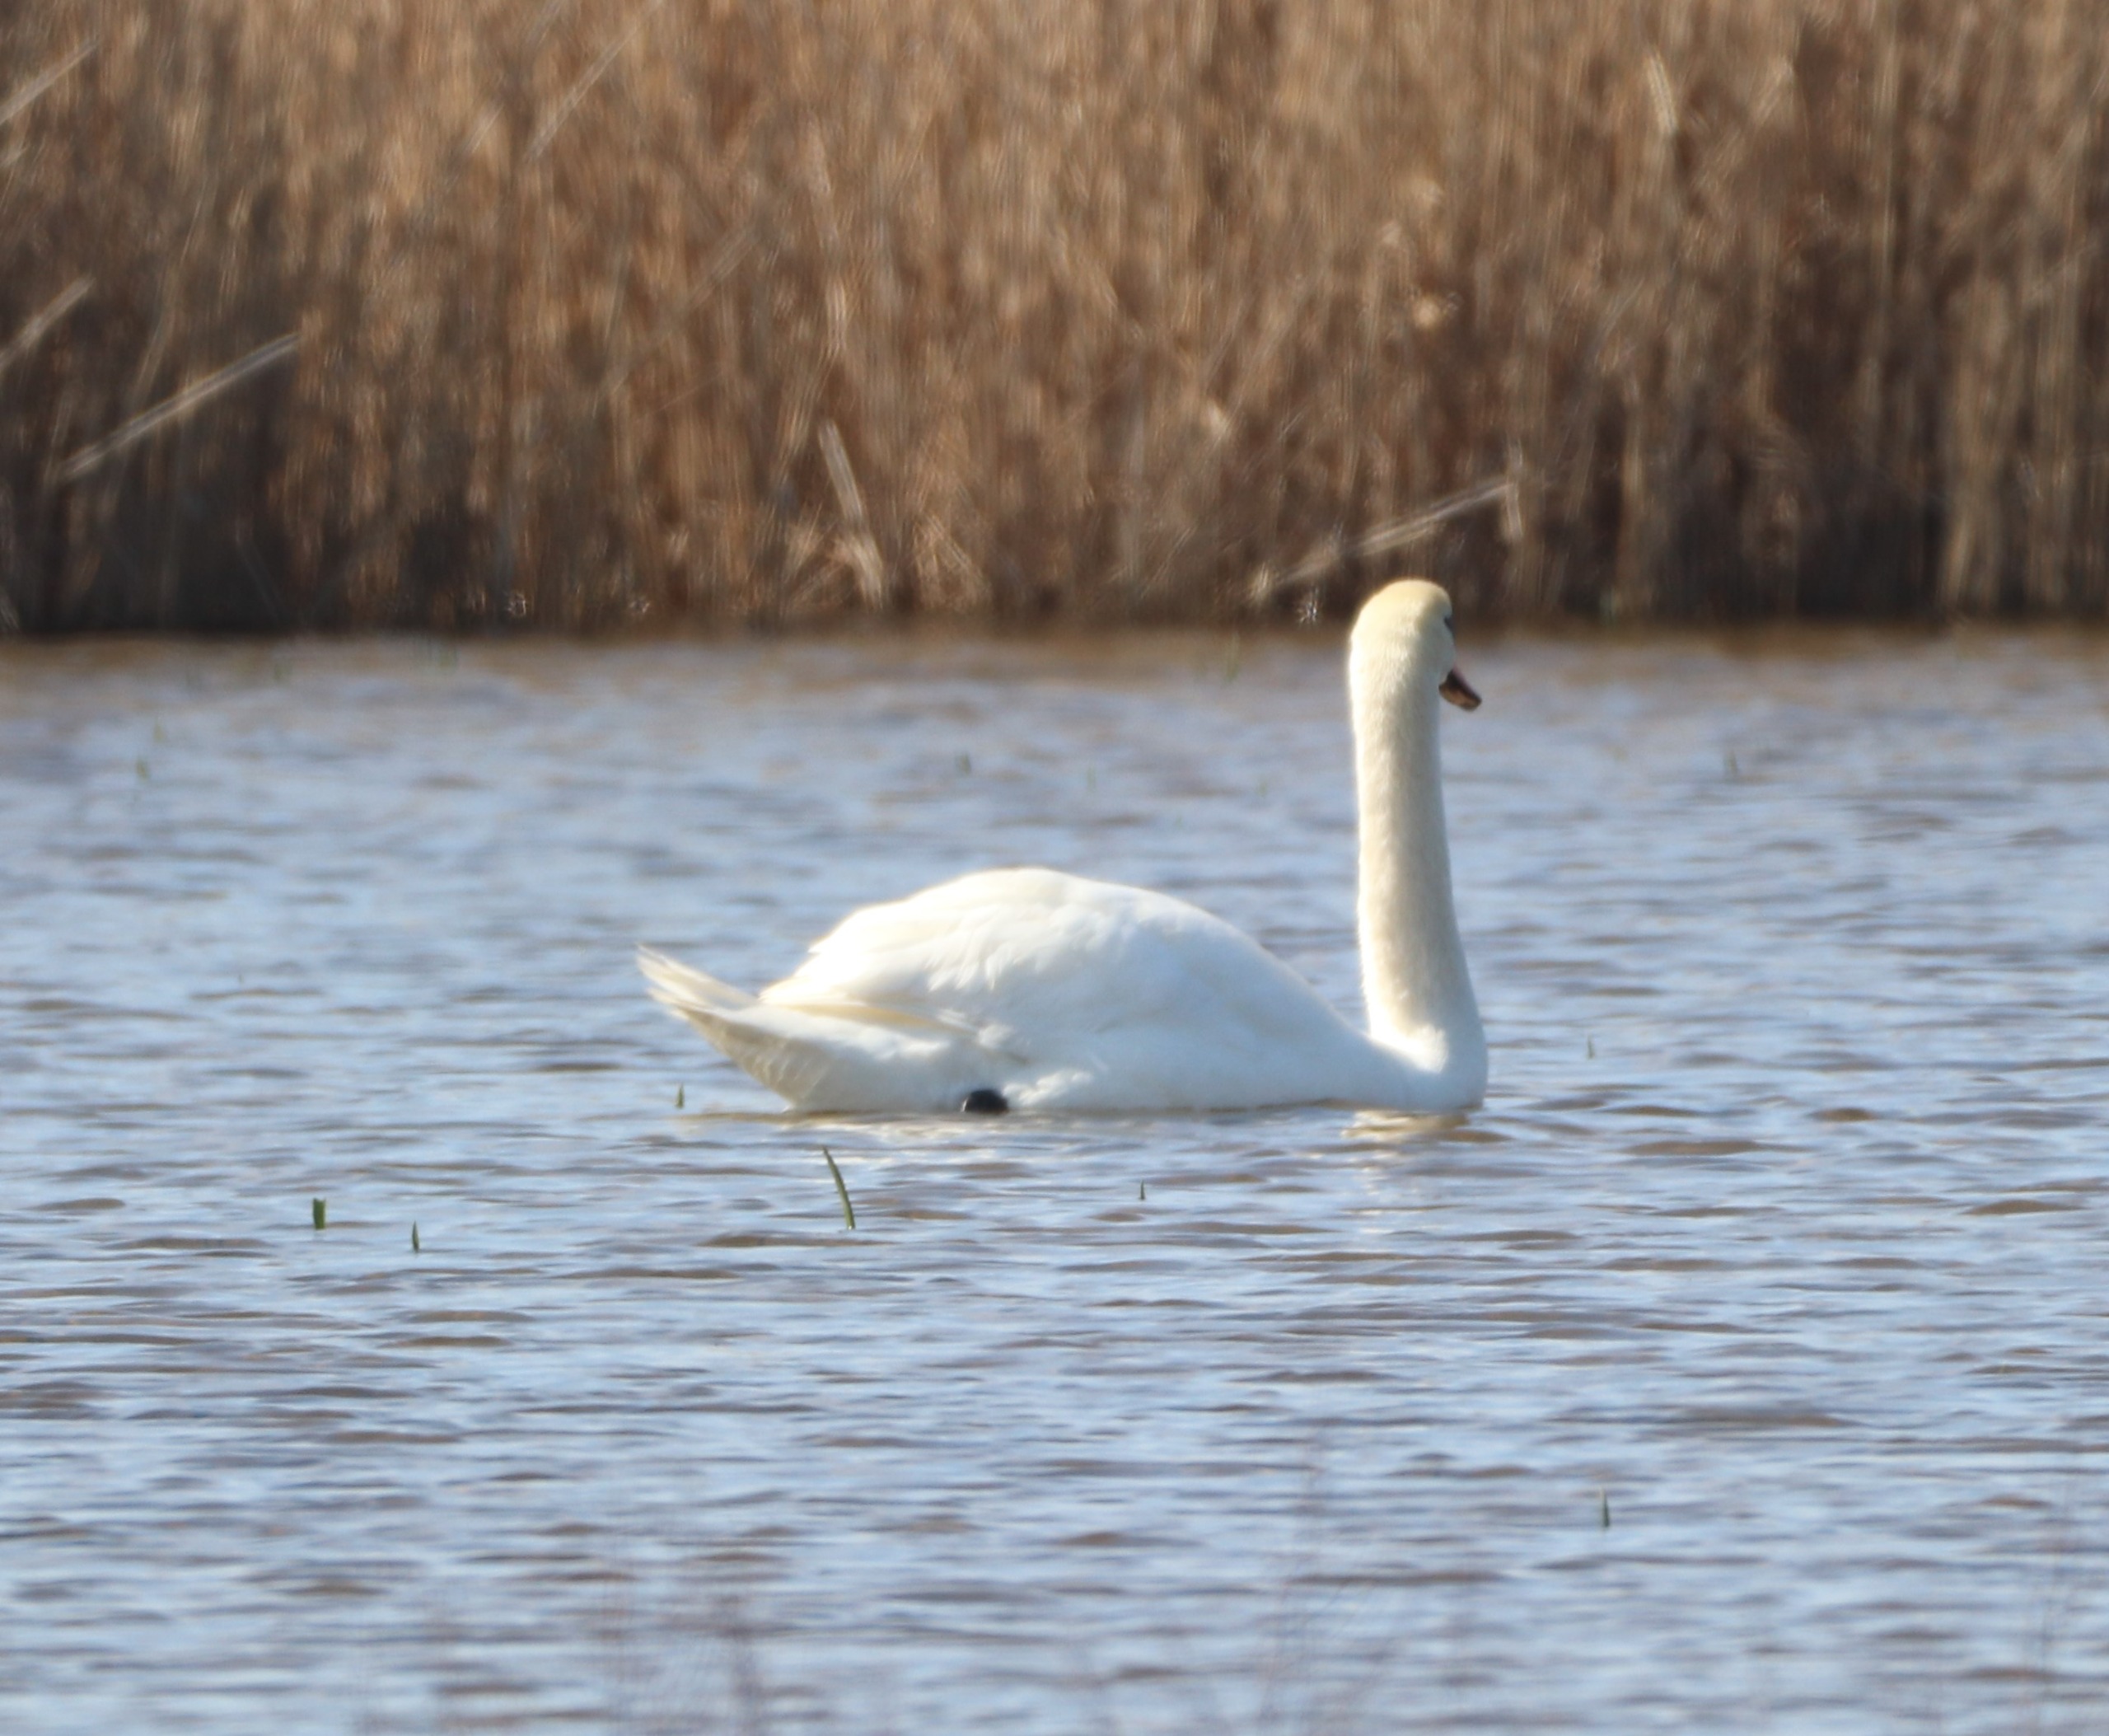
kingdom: Animalia
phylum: Chordata
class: Aves
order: Anseriformes
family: Anatidae
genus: Cygnus
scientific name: Cygnus olor
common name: Knopsvane
